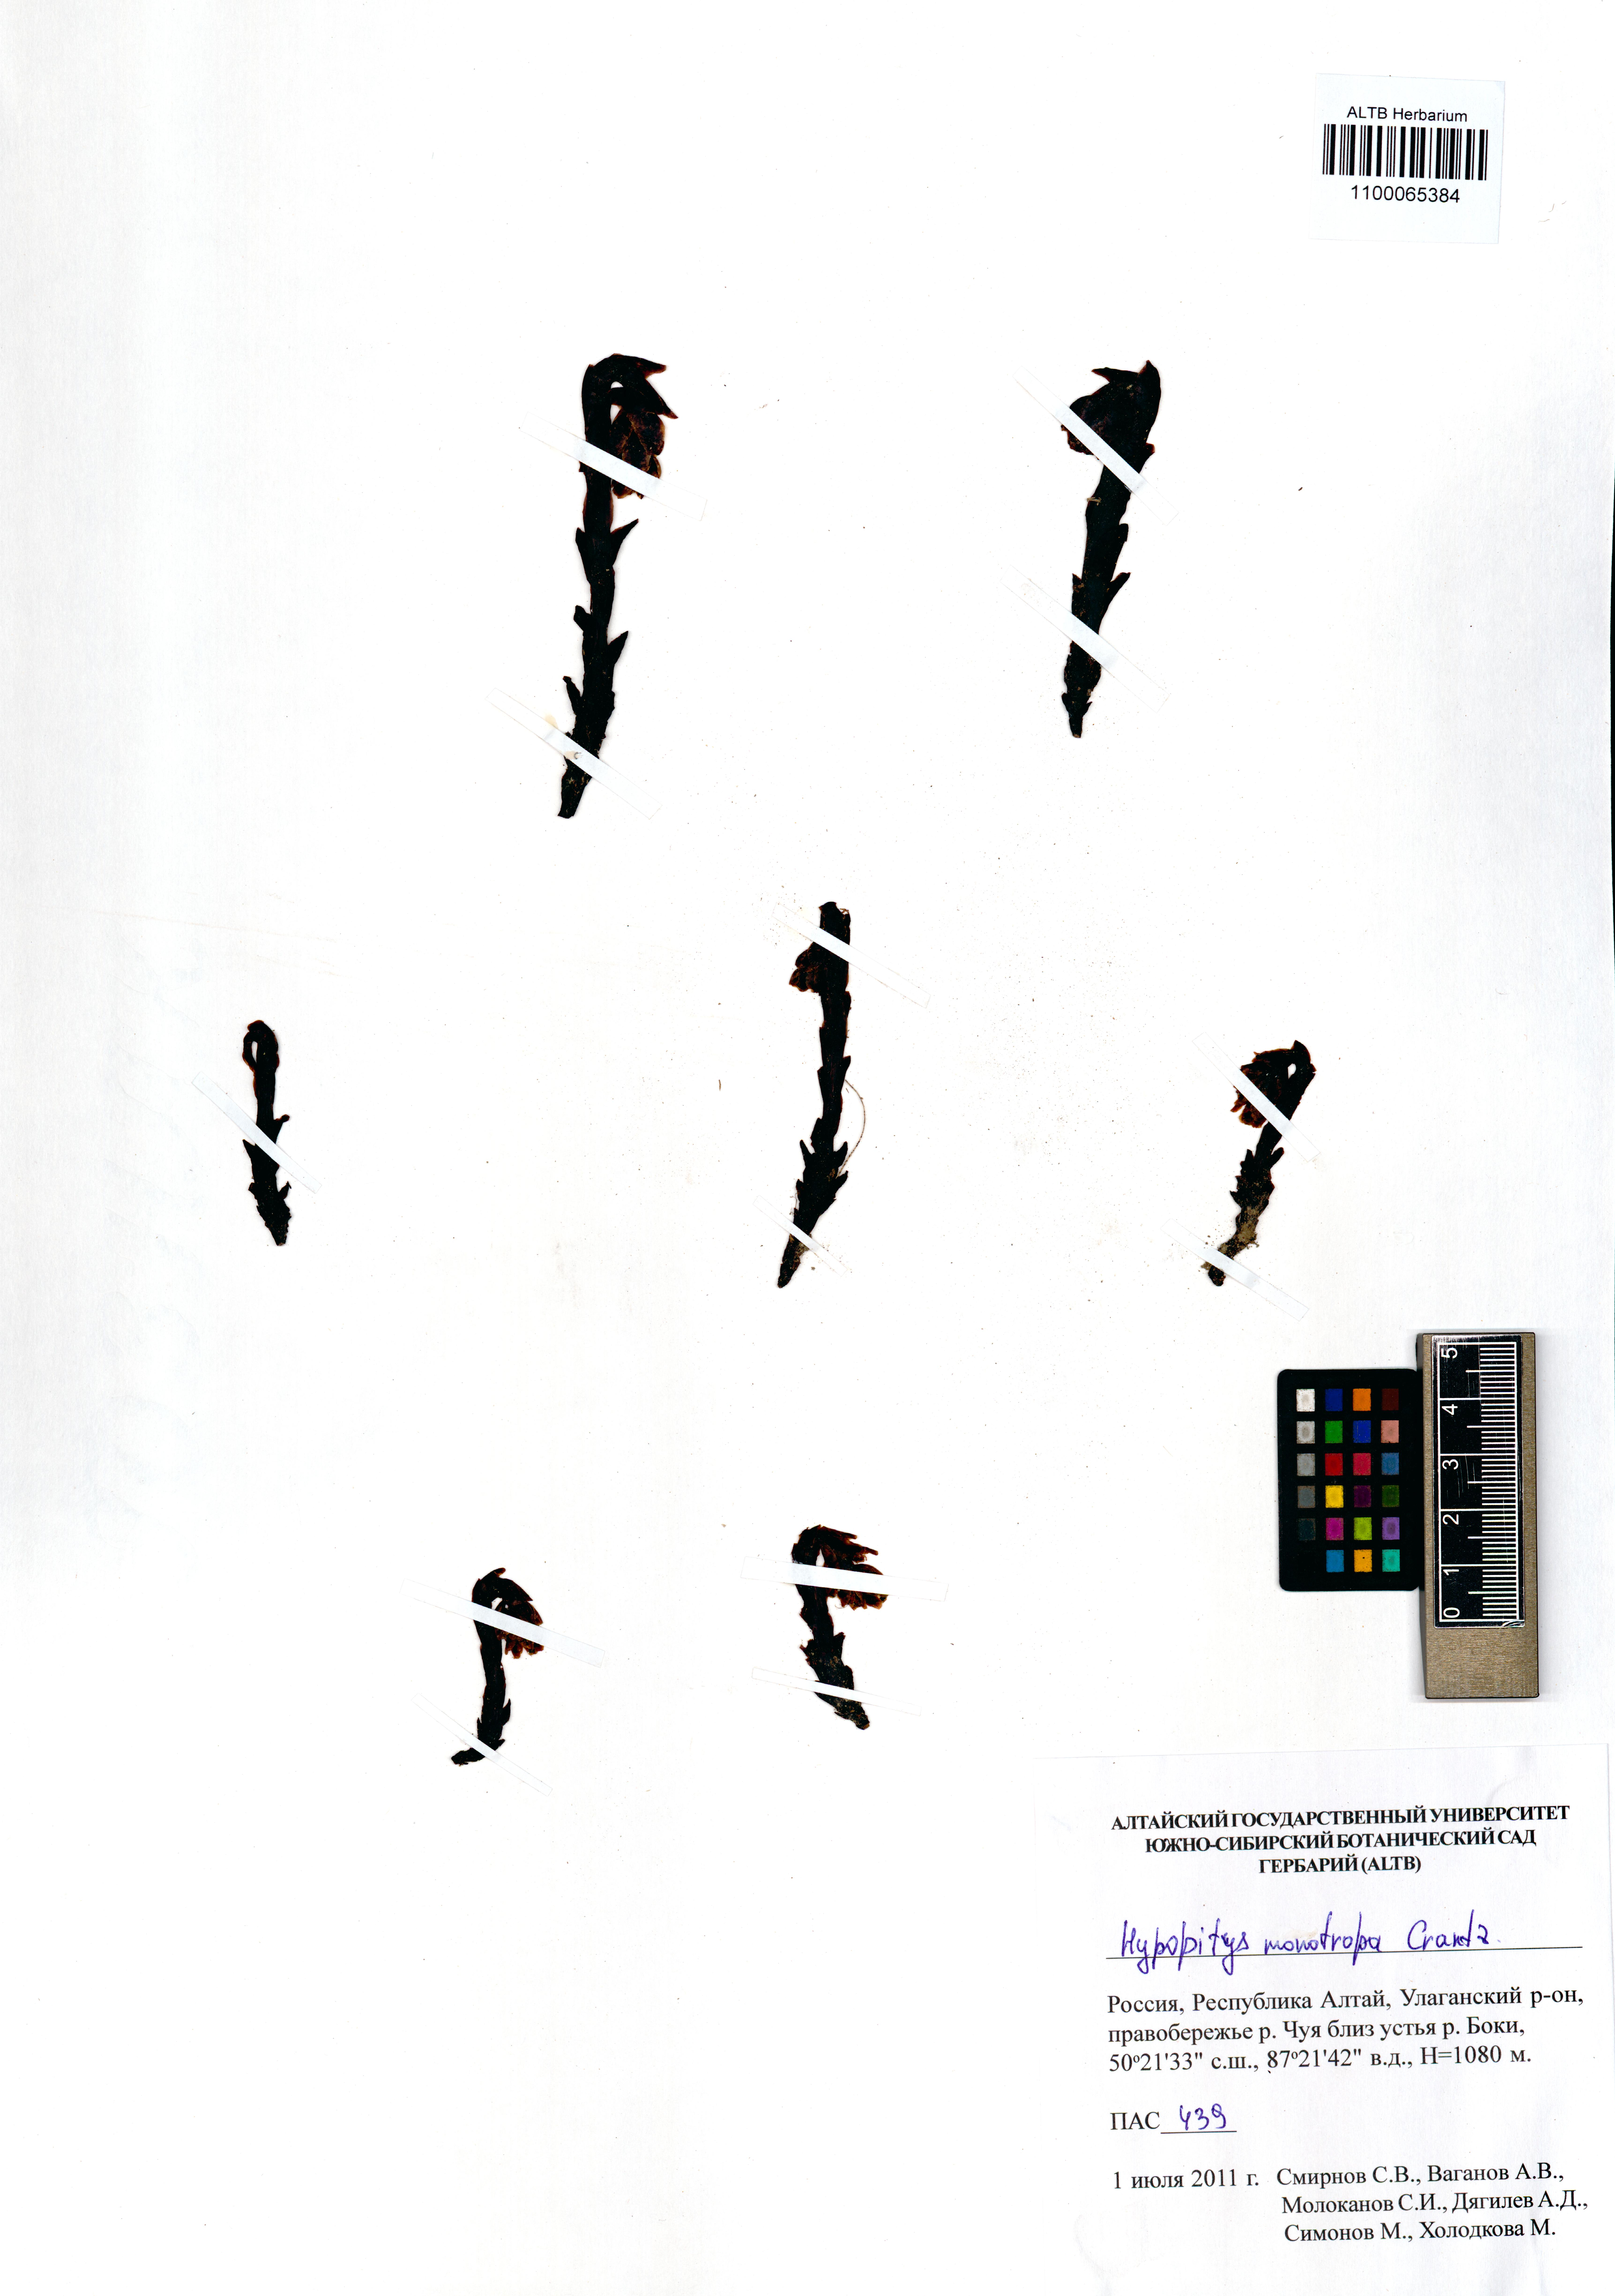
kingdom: Plantae
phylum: Tracheophyta
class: Magnoliopsida
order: Ericales
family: Ericaceae
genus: Hypopitys
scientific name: Hypopitys monotropa
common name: Yellow bird's-nest
